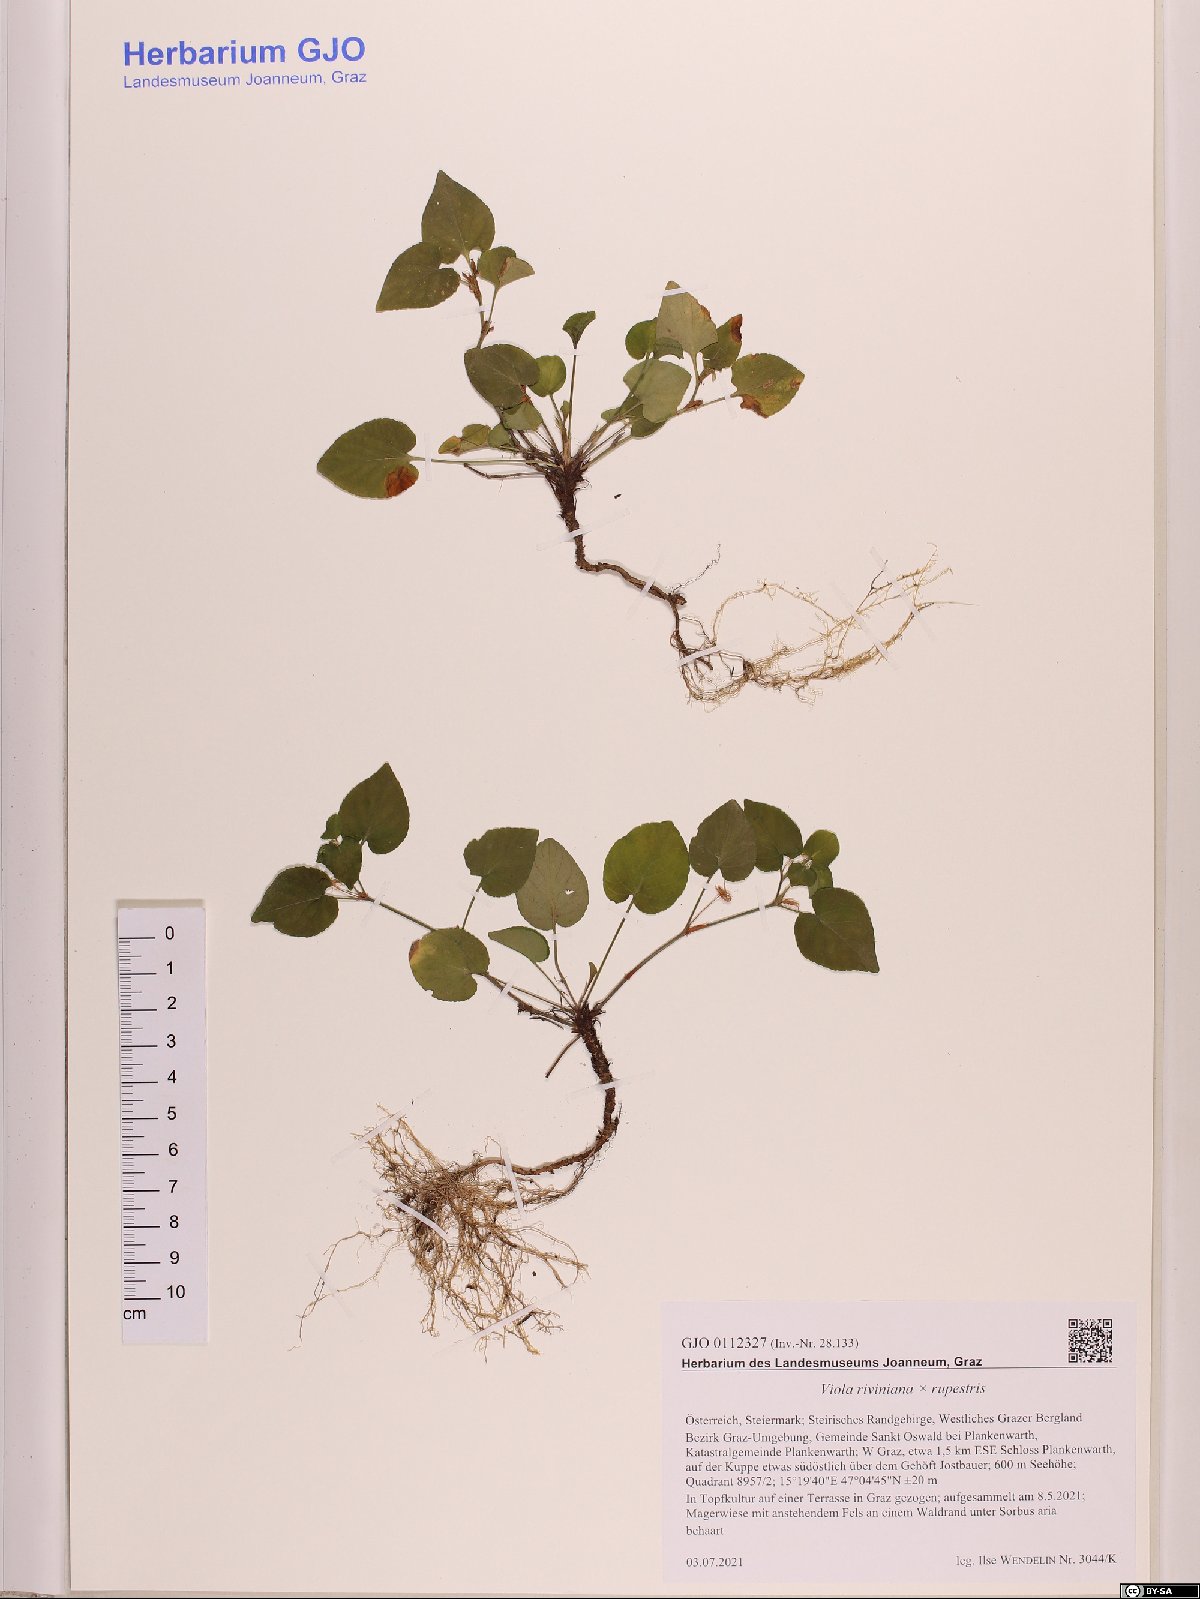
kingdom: Plantae
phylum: Tracheophyta
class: Magnoliopsida
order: Malpighiales
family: Violaceae
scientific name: Violaceae
